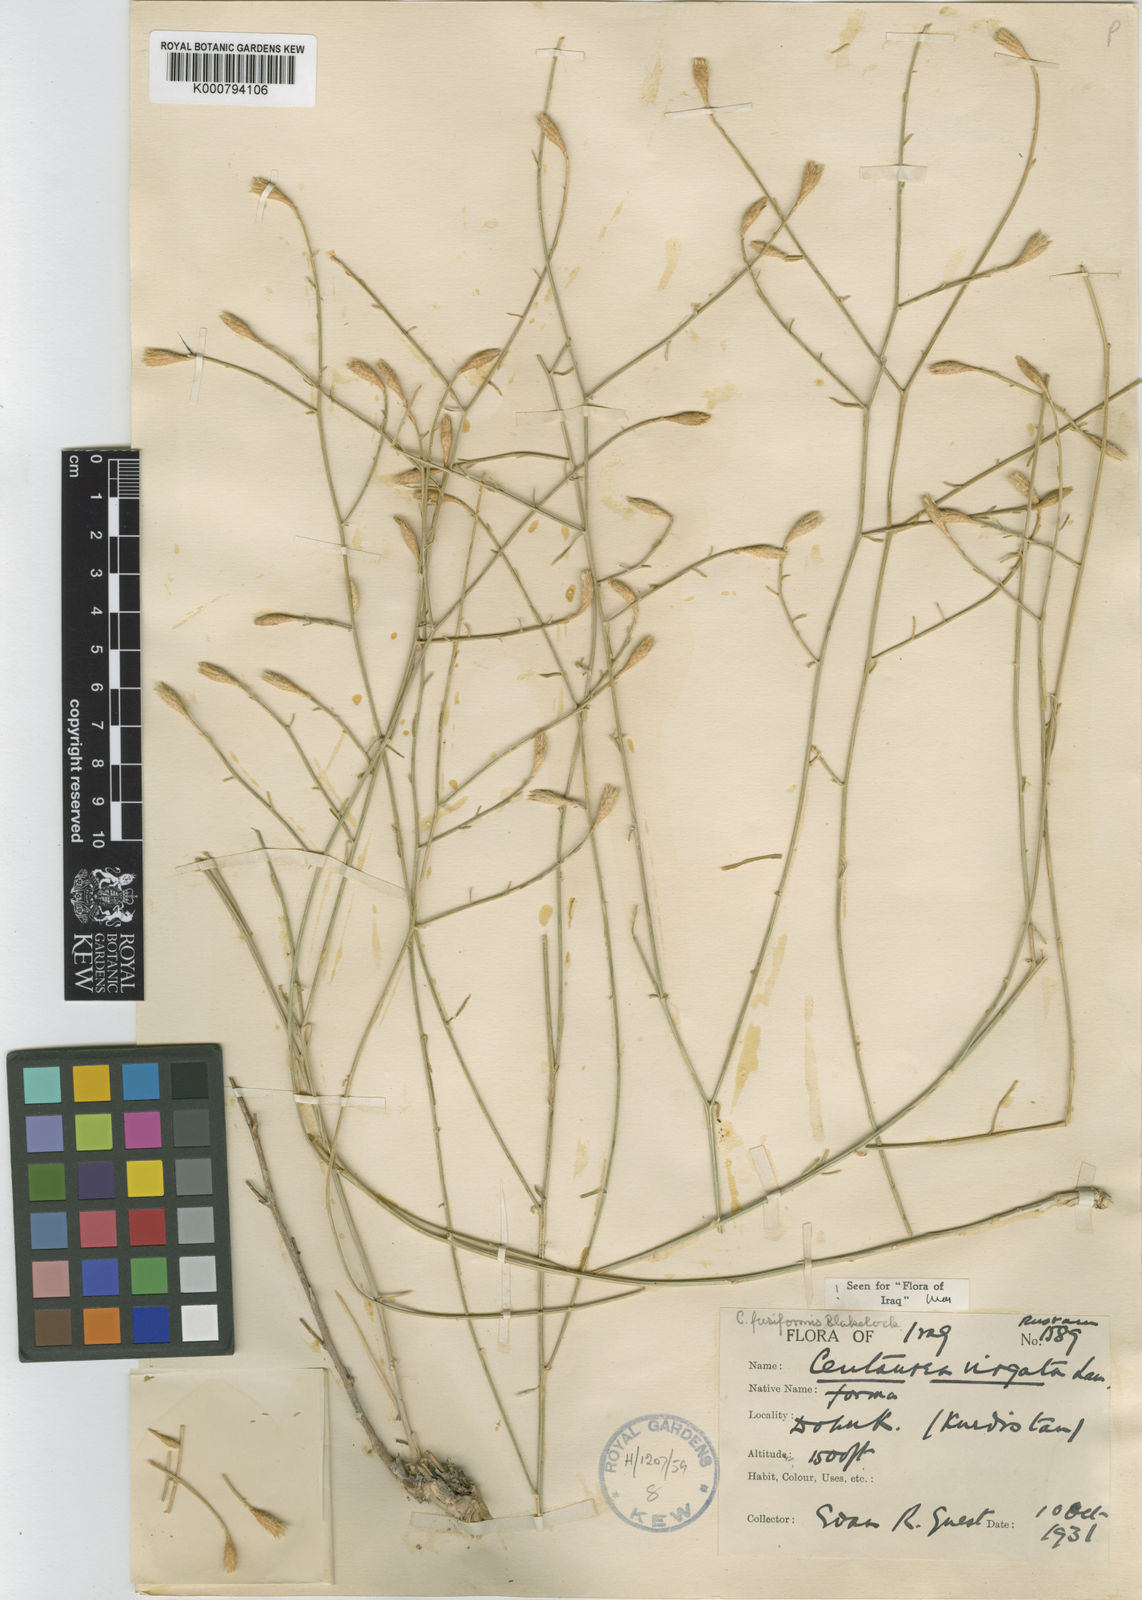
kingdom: Plantae
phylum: Tracheophyta
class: Magnoliopsida
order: Asterales
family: Asteraceae
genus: Centaurea
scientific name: Centaurea fusiformis
